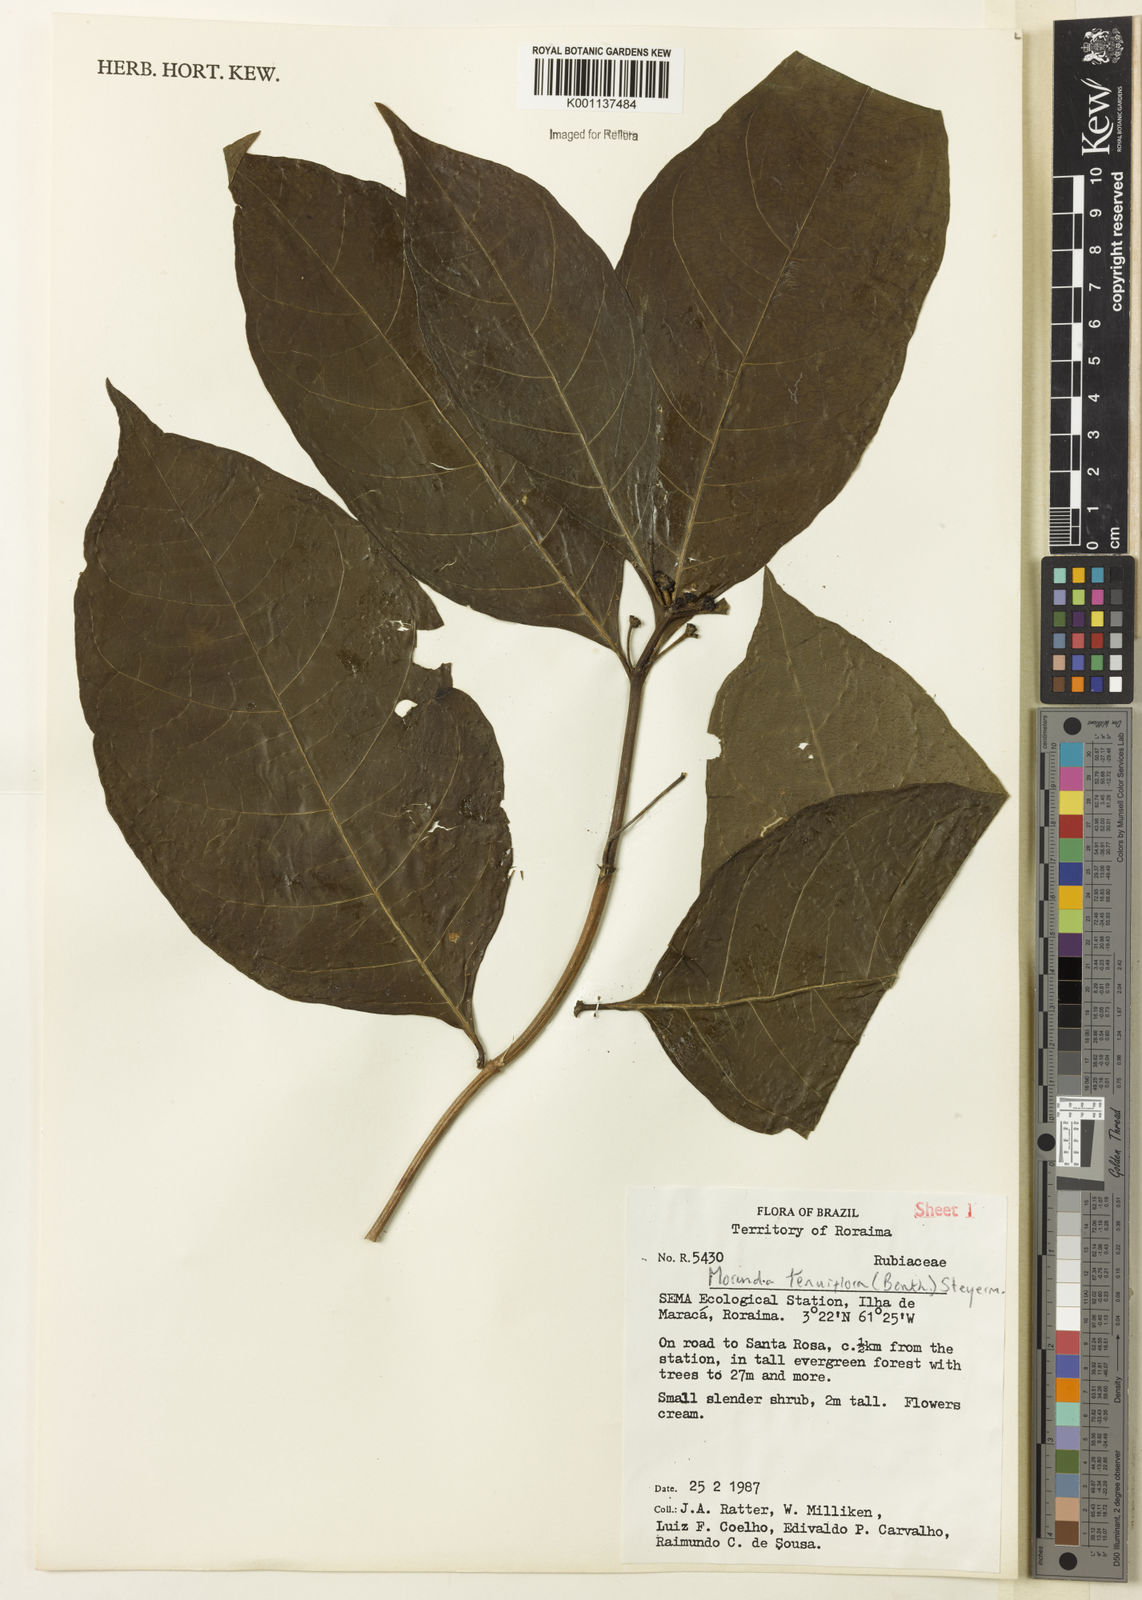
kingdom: Plantae
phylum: Tracheophyta
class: Magnoliopsida
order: Gentianales
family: Rubiaceae
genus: Appunia
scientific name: Appunia tenuiflora
